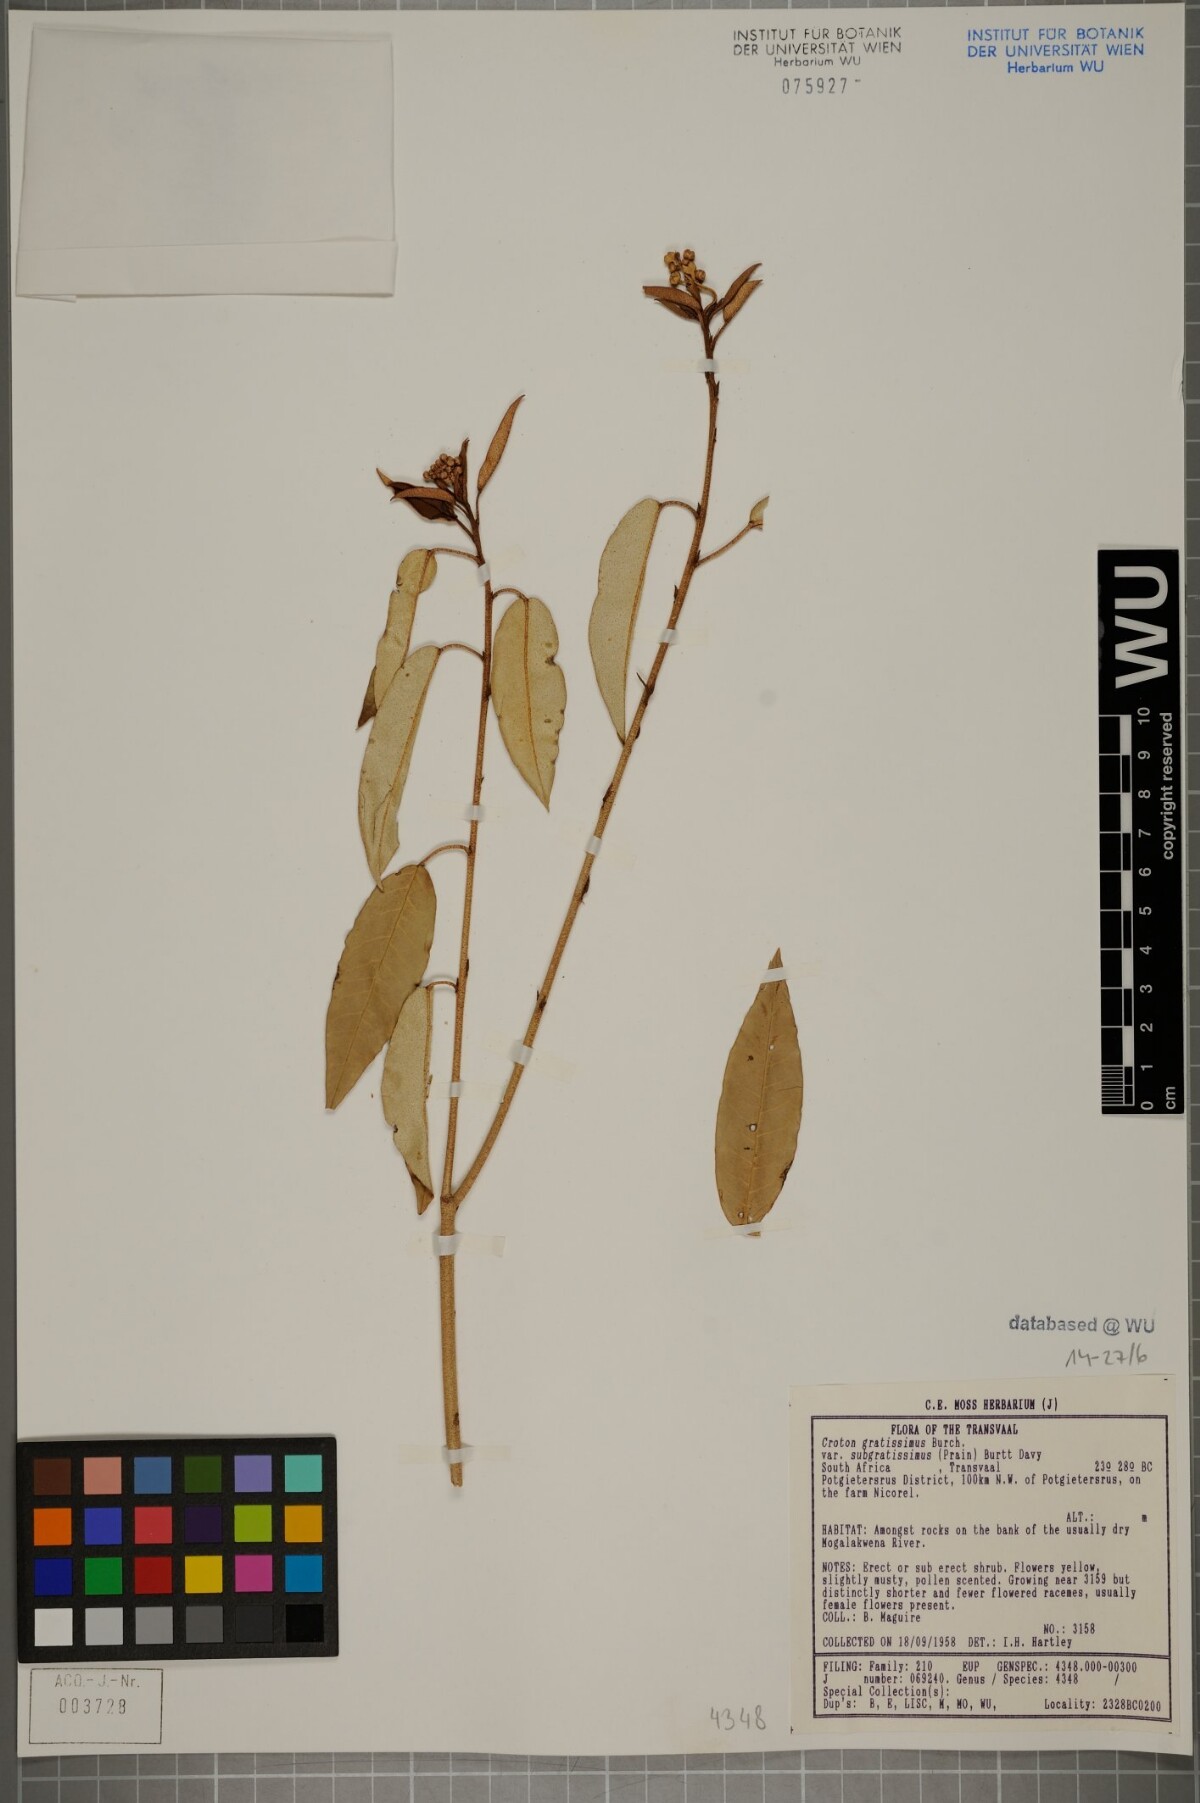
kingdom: Plantae
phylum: Tracheophyta
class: Magnoliopsida
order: Malpighiales
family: Euphorbiaceae
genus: Croton
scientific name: Croton gratissimus
